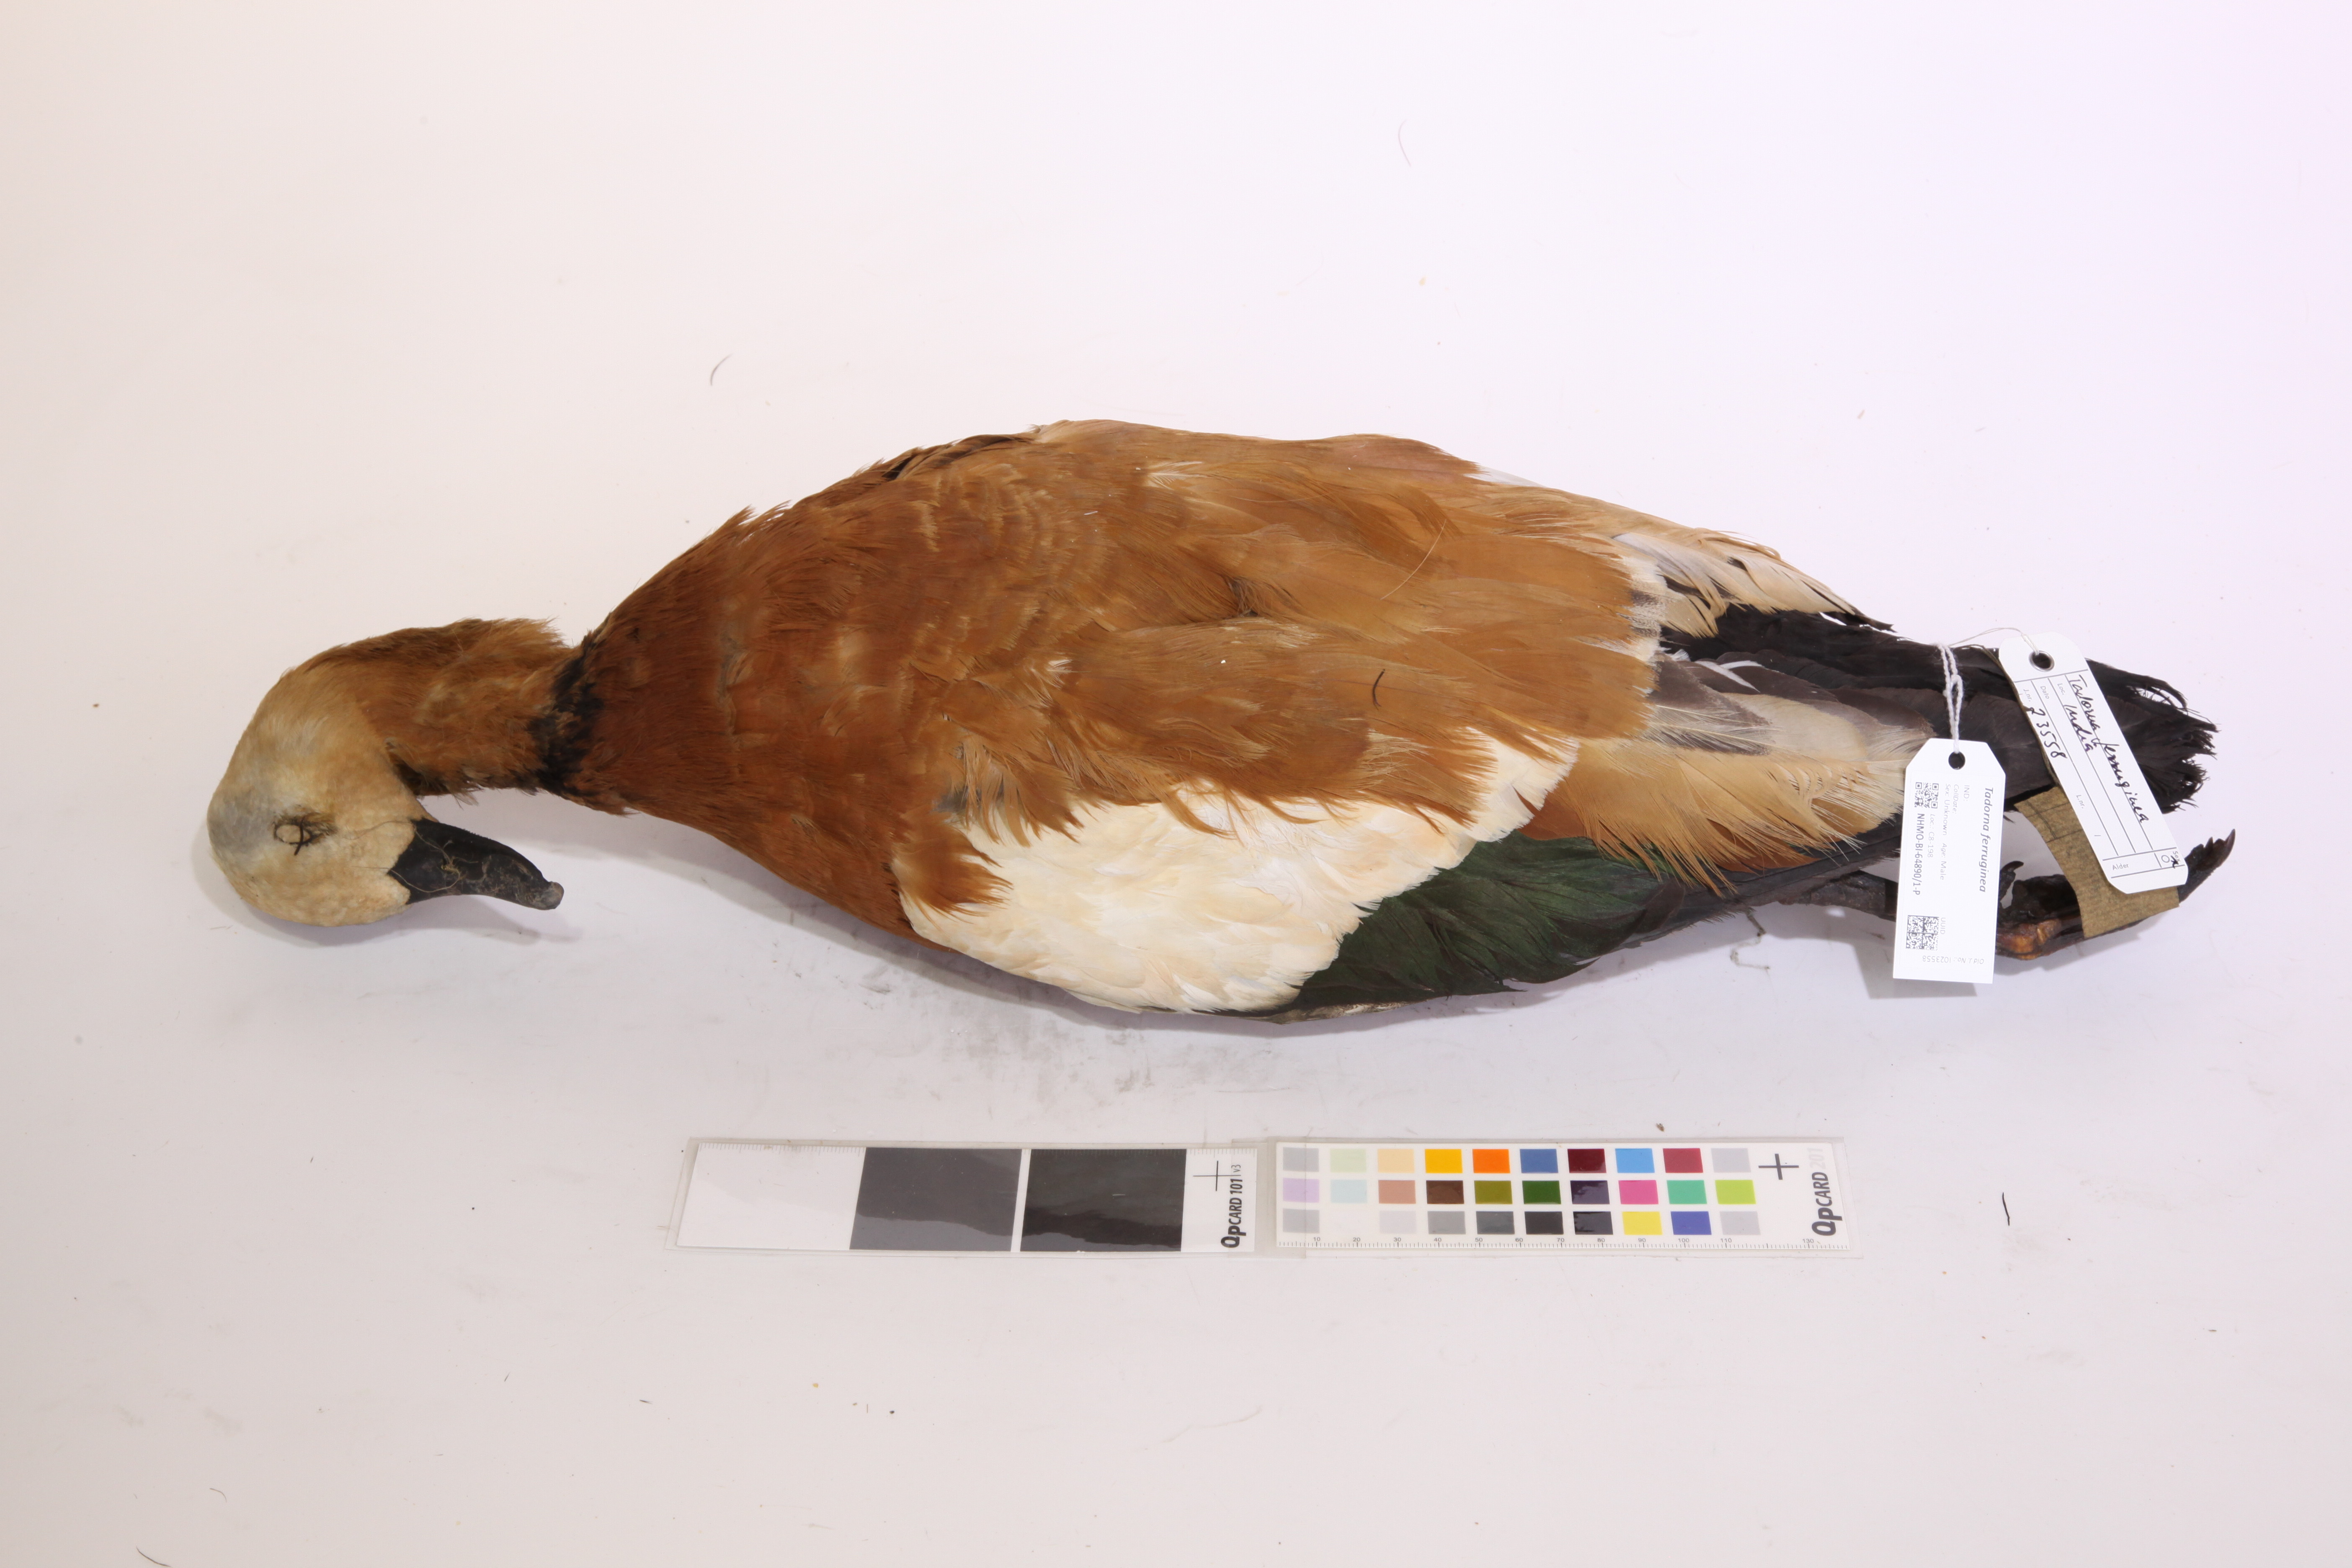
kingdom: Animalia
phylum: Chordata
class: Aves
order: Anseriformes
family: Anatidae
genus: Tadorna
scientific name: Tadorna ferruginea
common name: Ruddy shelduck
